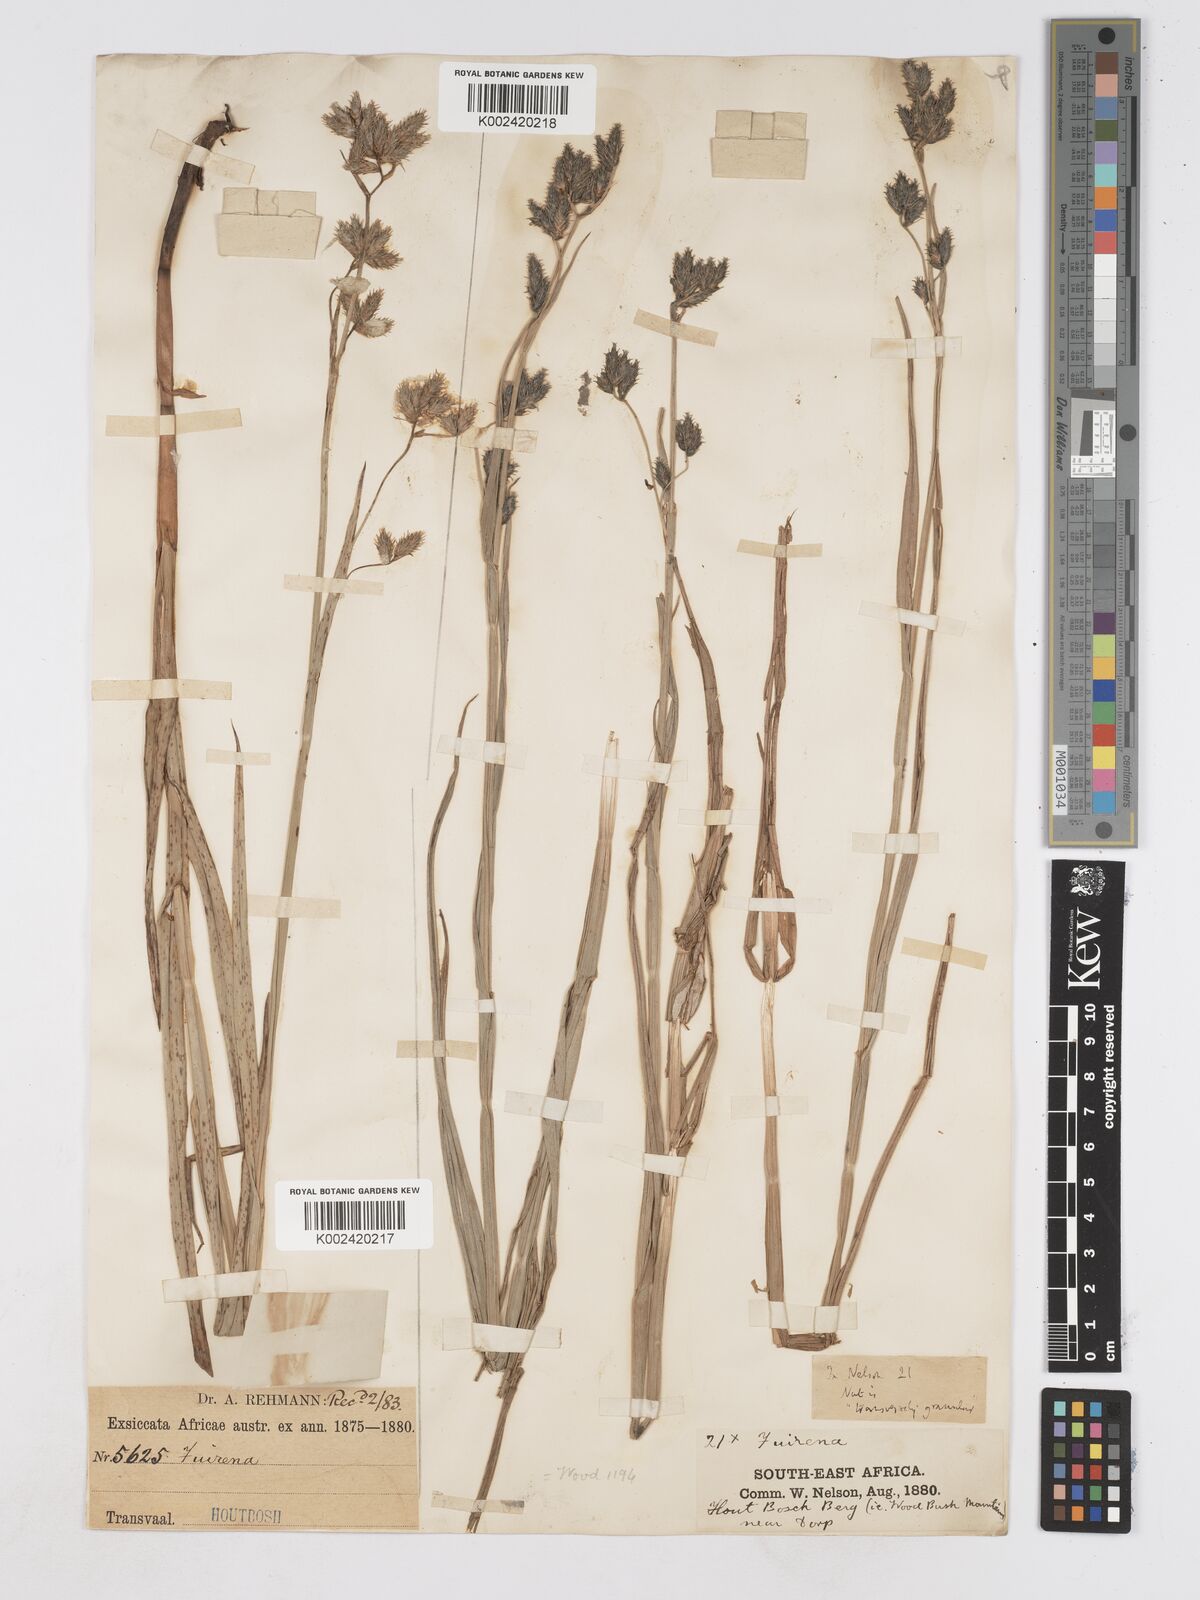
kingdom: Plantae
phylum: Tracheophyta
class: Liliopsida
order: Poales
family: Cyperaceae
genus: Fuirena
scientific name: Fuirena pachyrrhiza
